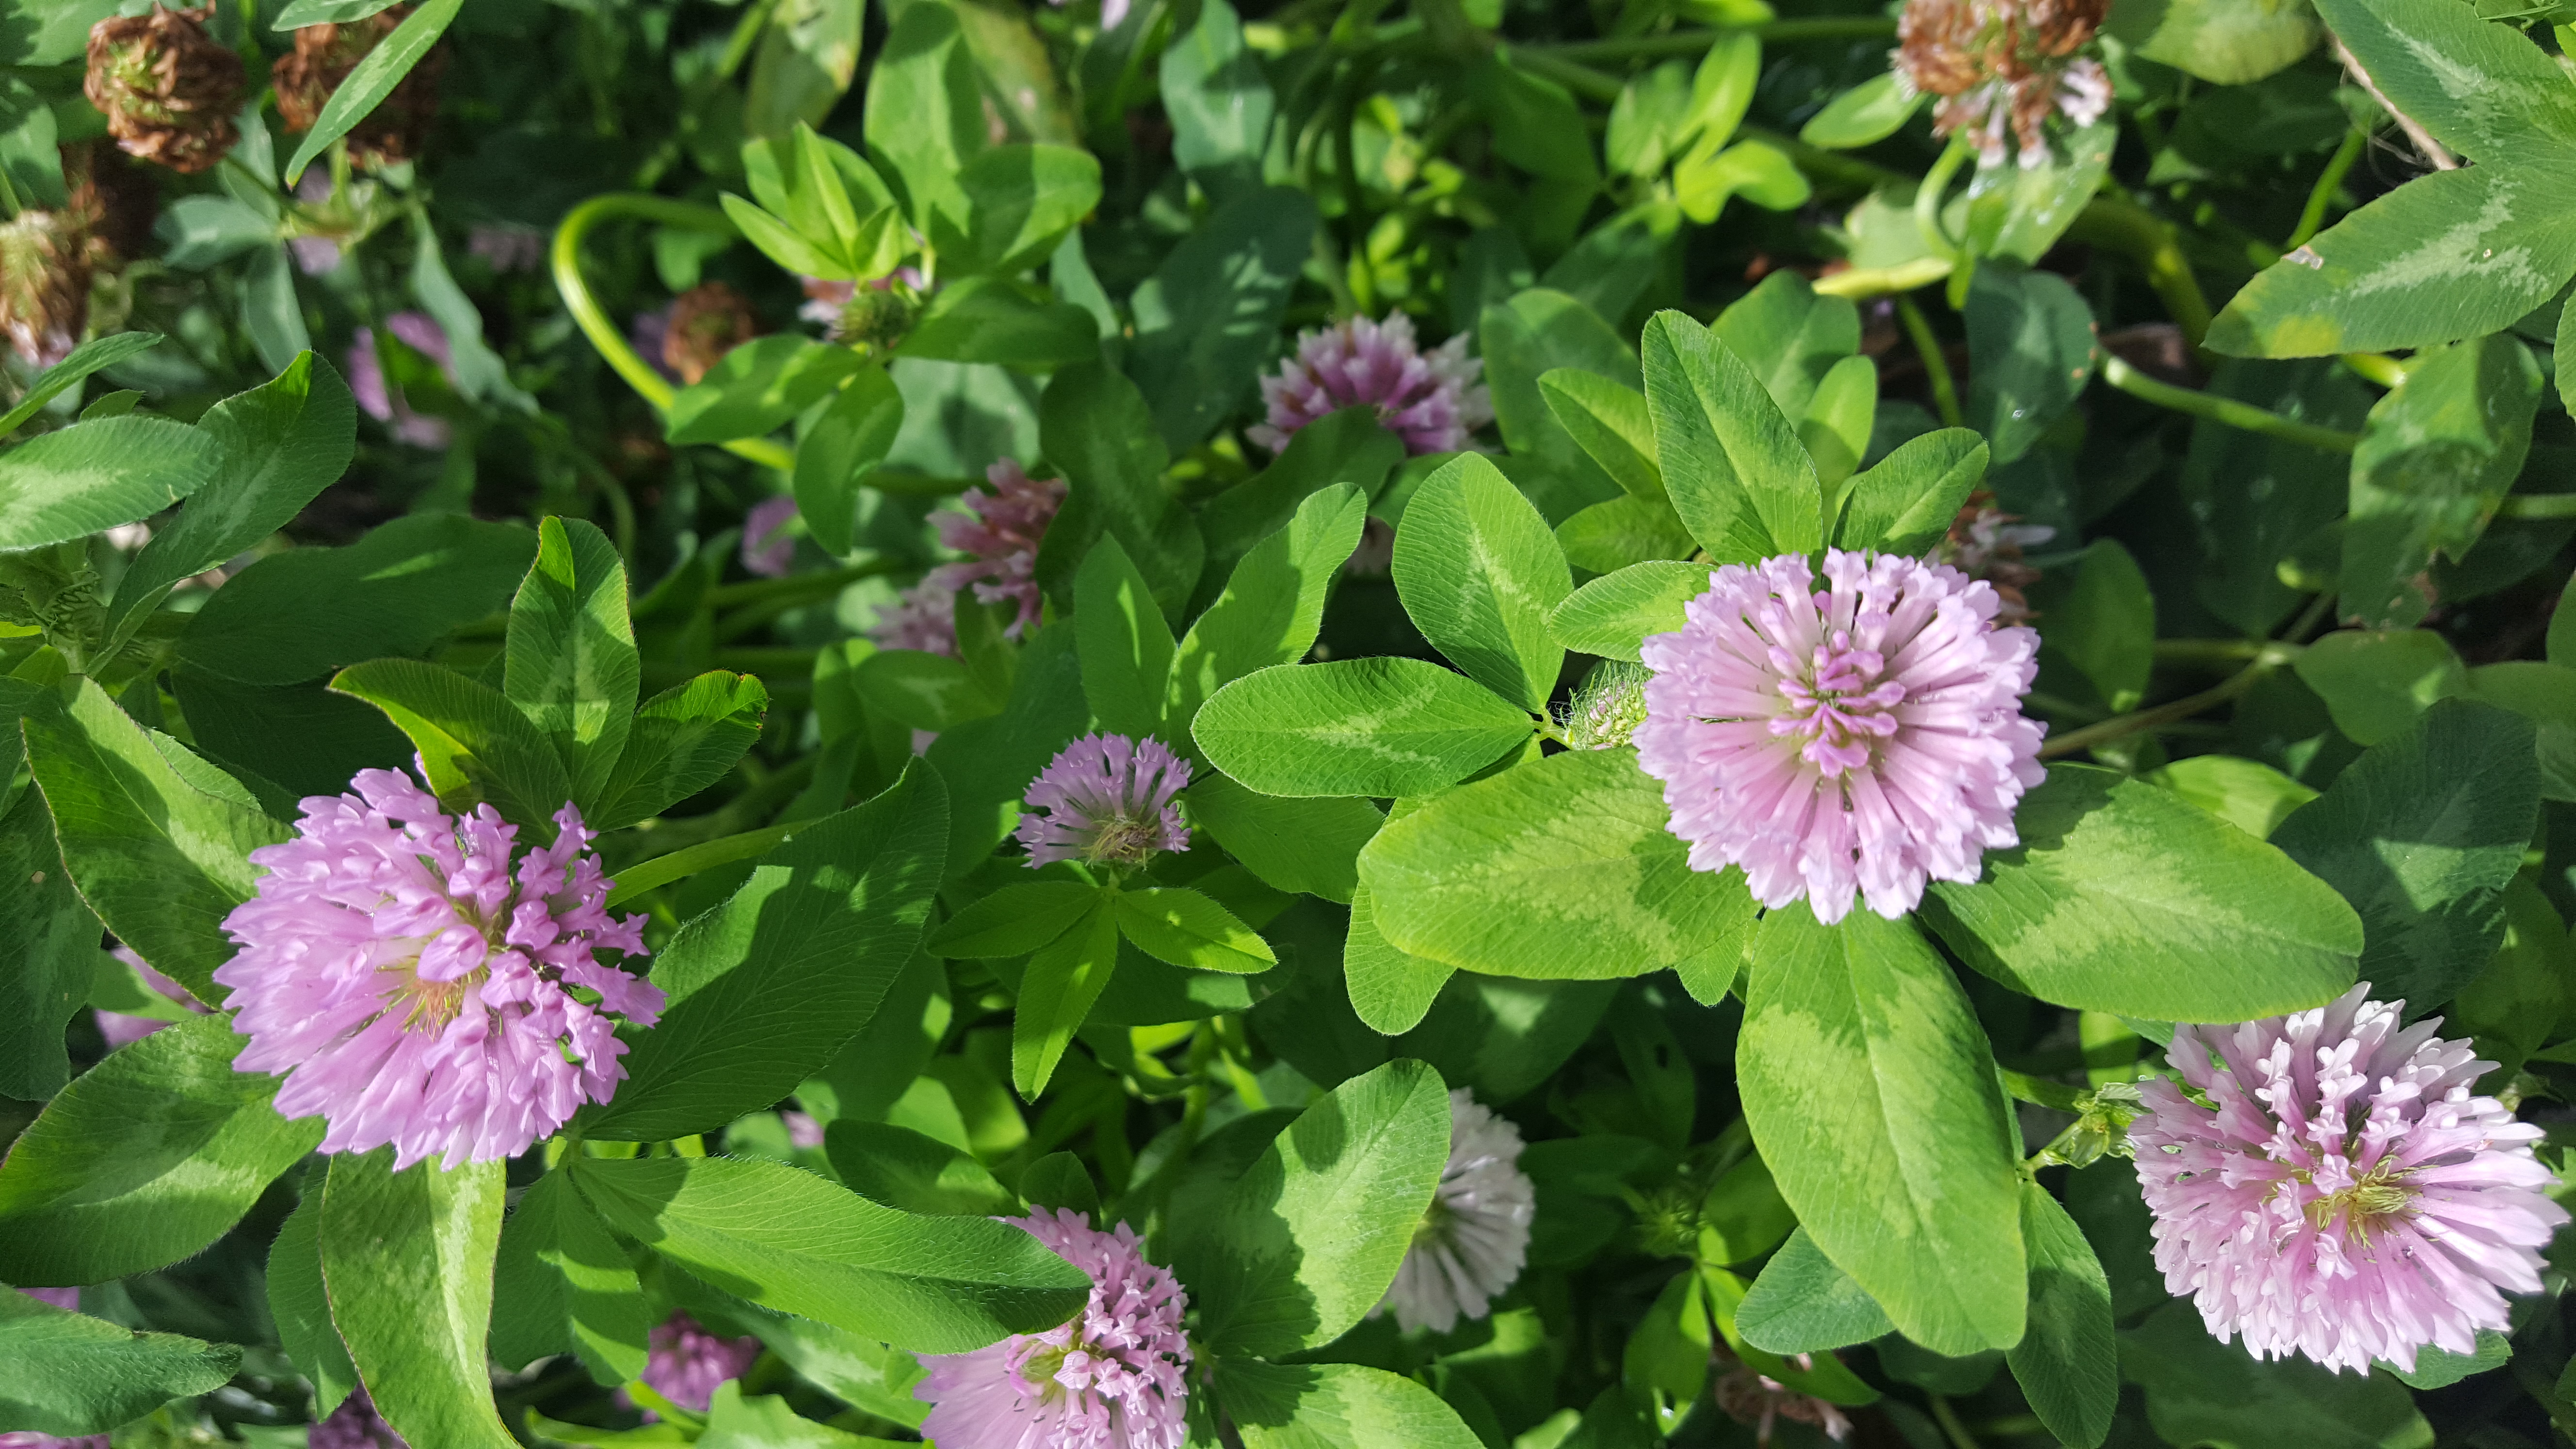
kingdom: Plantae
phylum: Tracheophyta
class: Magnoliopsida
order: Fabales
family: Fabaceae
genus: Trifolium
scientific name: Trifolium pratense
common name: Red clover
